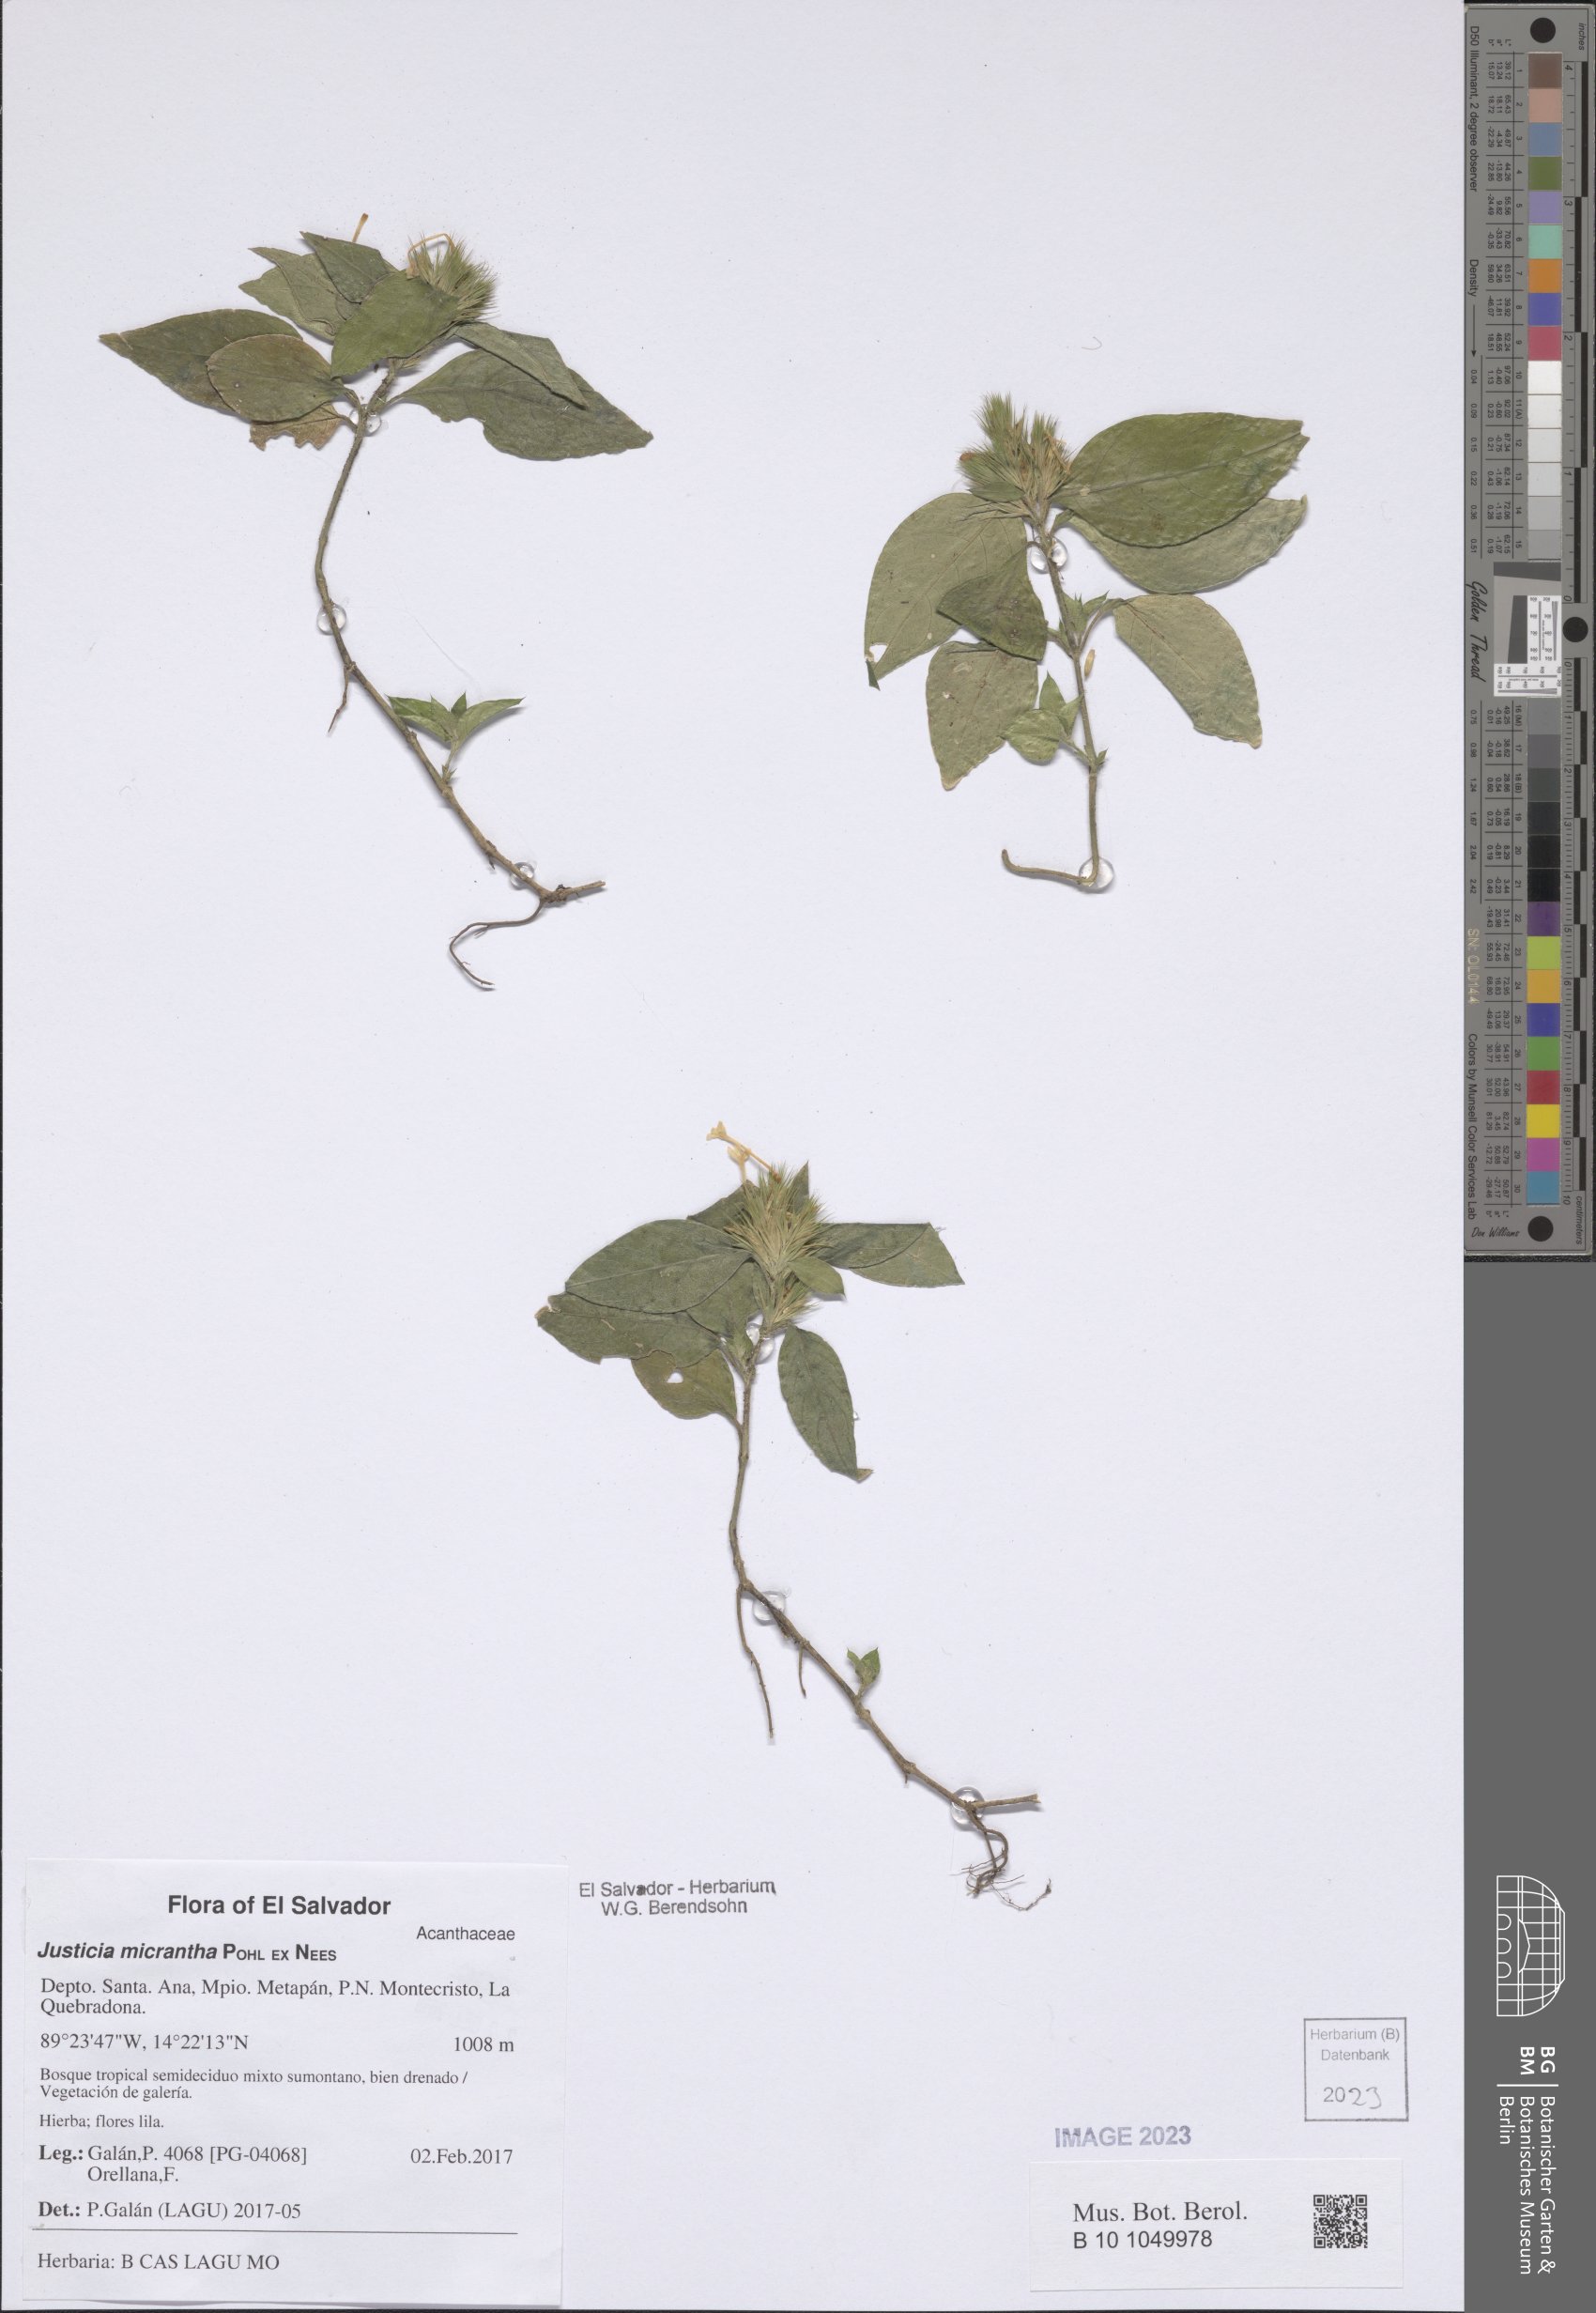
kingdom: Plantae
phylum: Tracheophyta
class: Magnoliopsida
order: Lamiales
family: Acanthaceae
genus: Justicia
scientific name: Justicia Tyloglossa adenostachya
